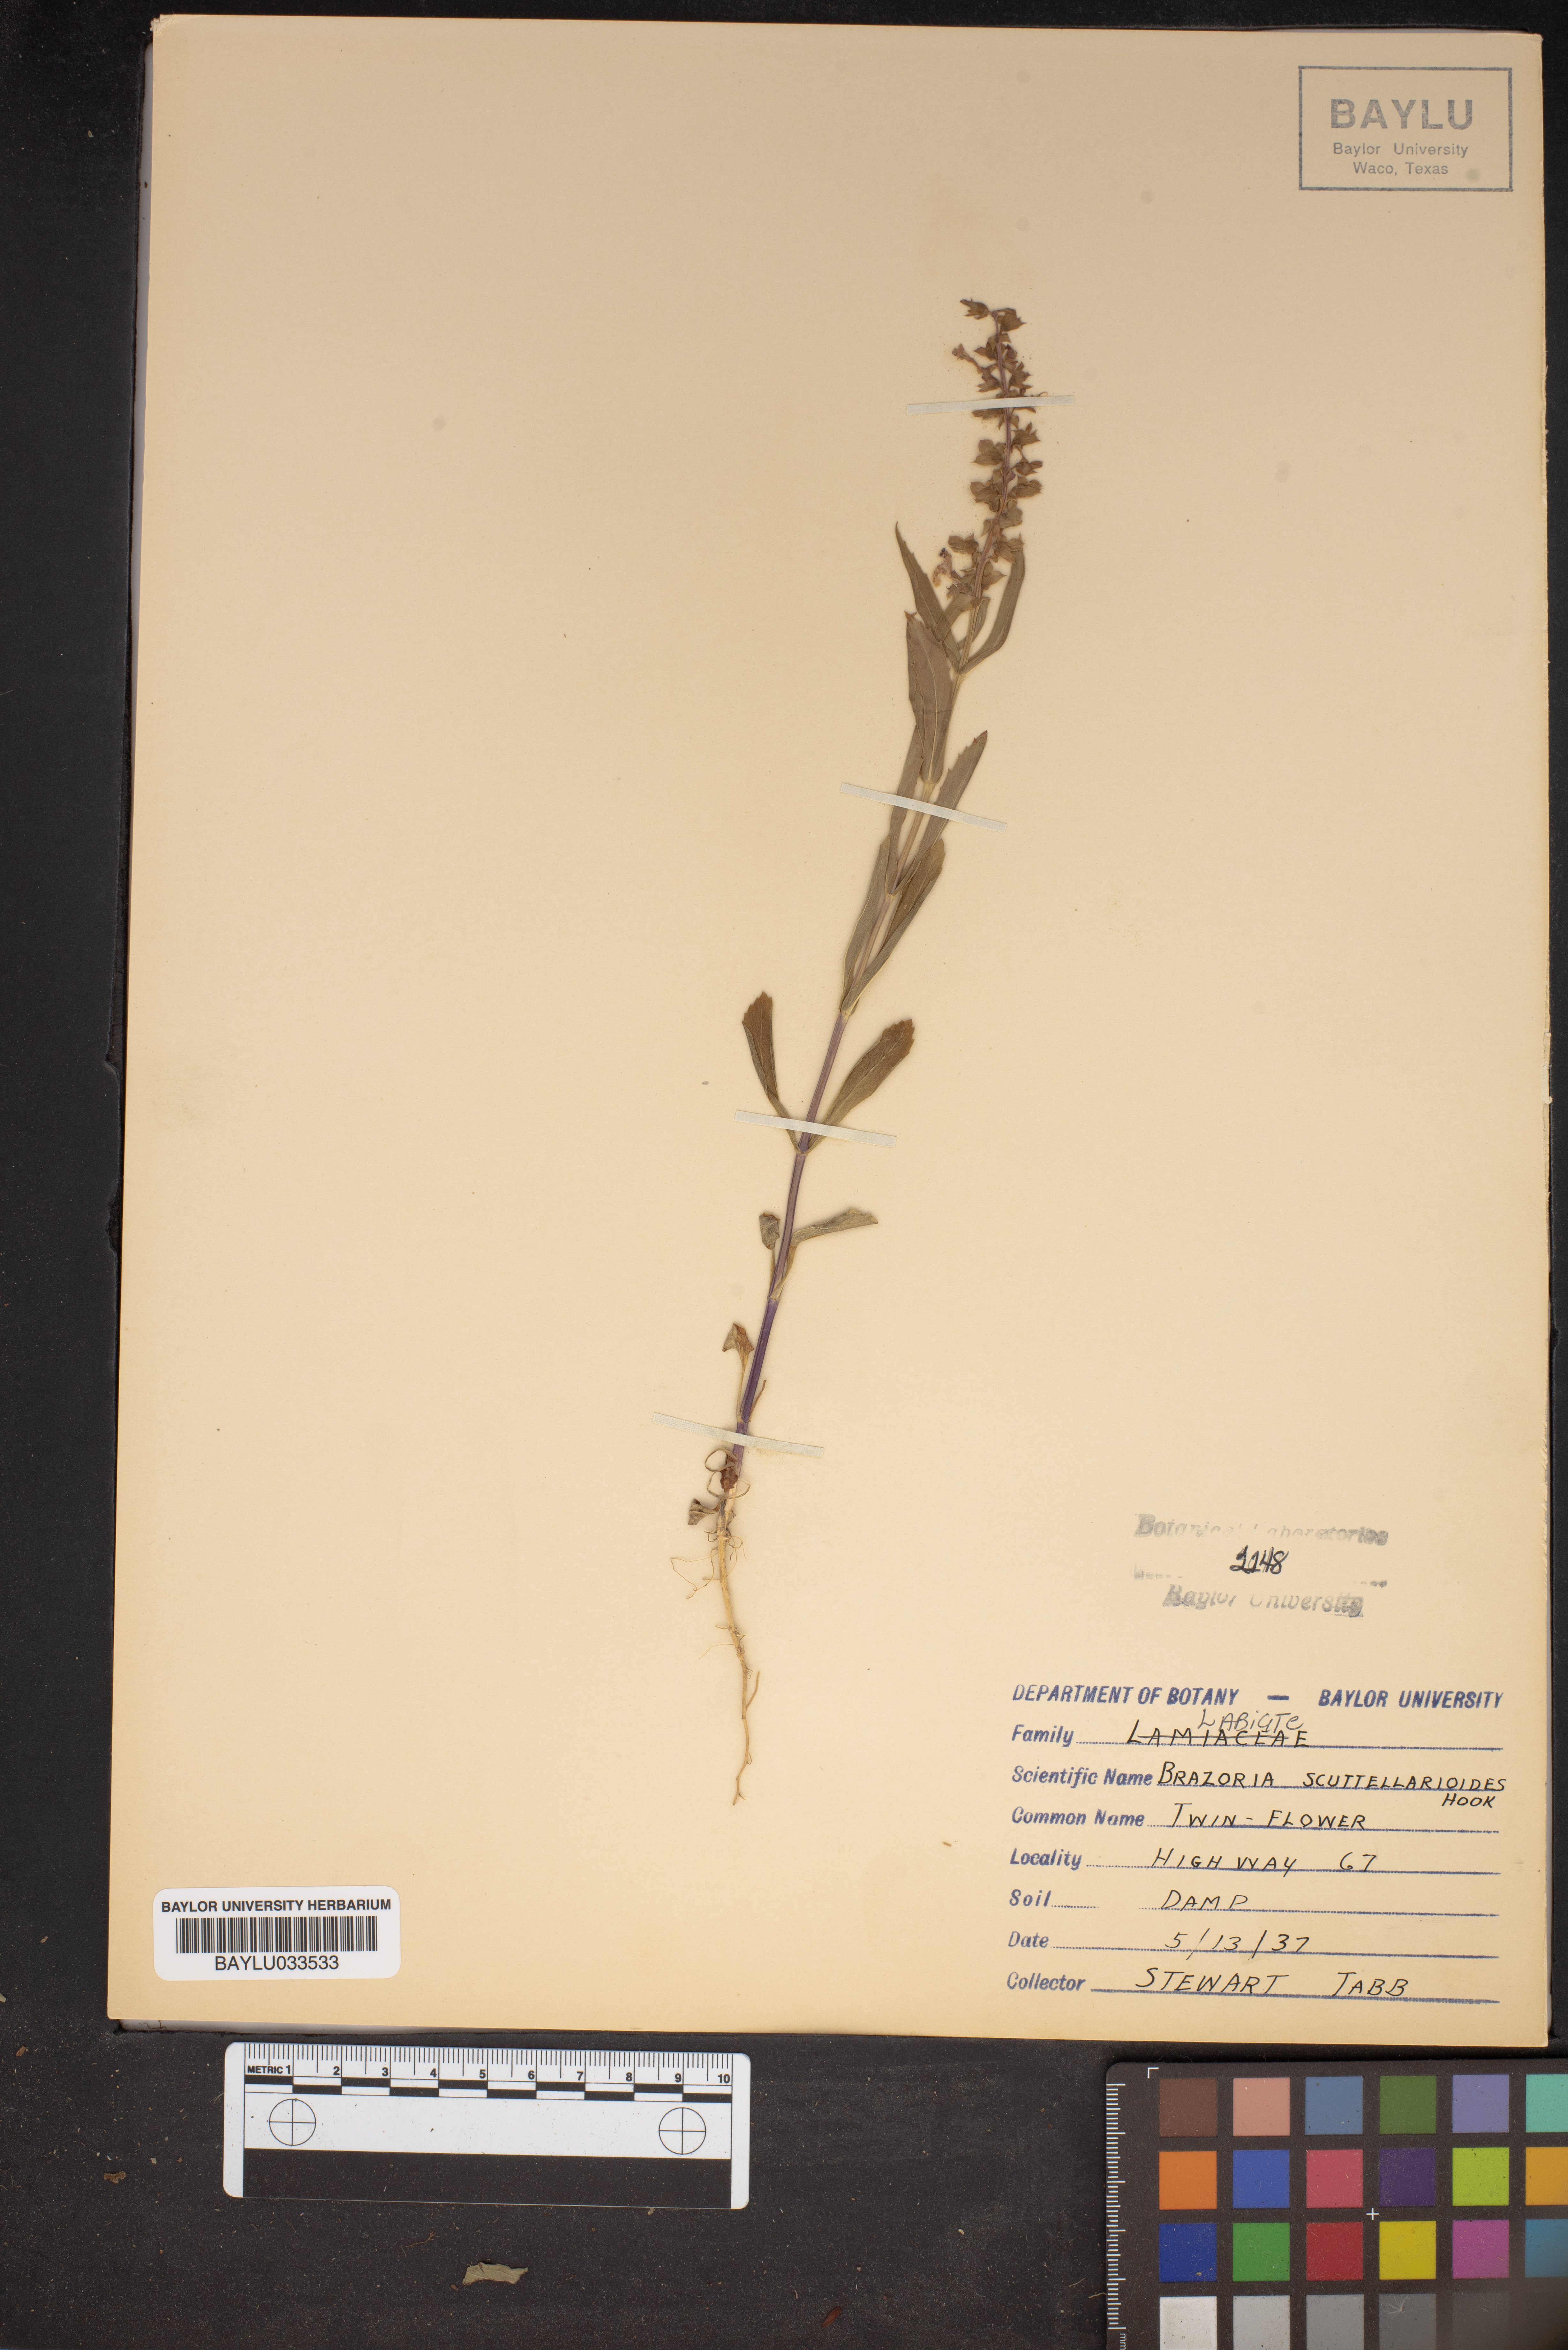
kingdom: Plantae
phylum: Tracheophyta
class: Magnoliopsida
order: Lamiales
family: Lamiaceae
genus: Warnockia
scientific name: Warnockia scutellarioides
